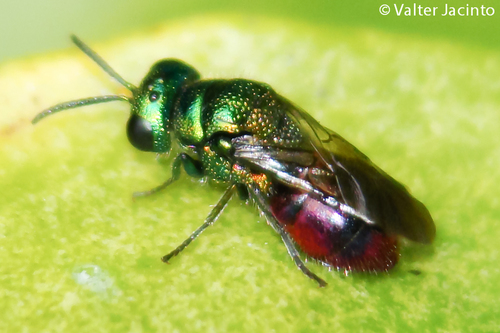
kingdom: Animalia
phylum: Arthropoda
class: Insecta
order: Hymenoptera
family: Chrysididae
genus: Pseudomalus
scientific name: Pseudomalus auratus
